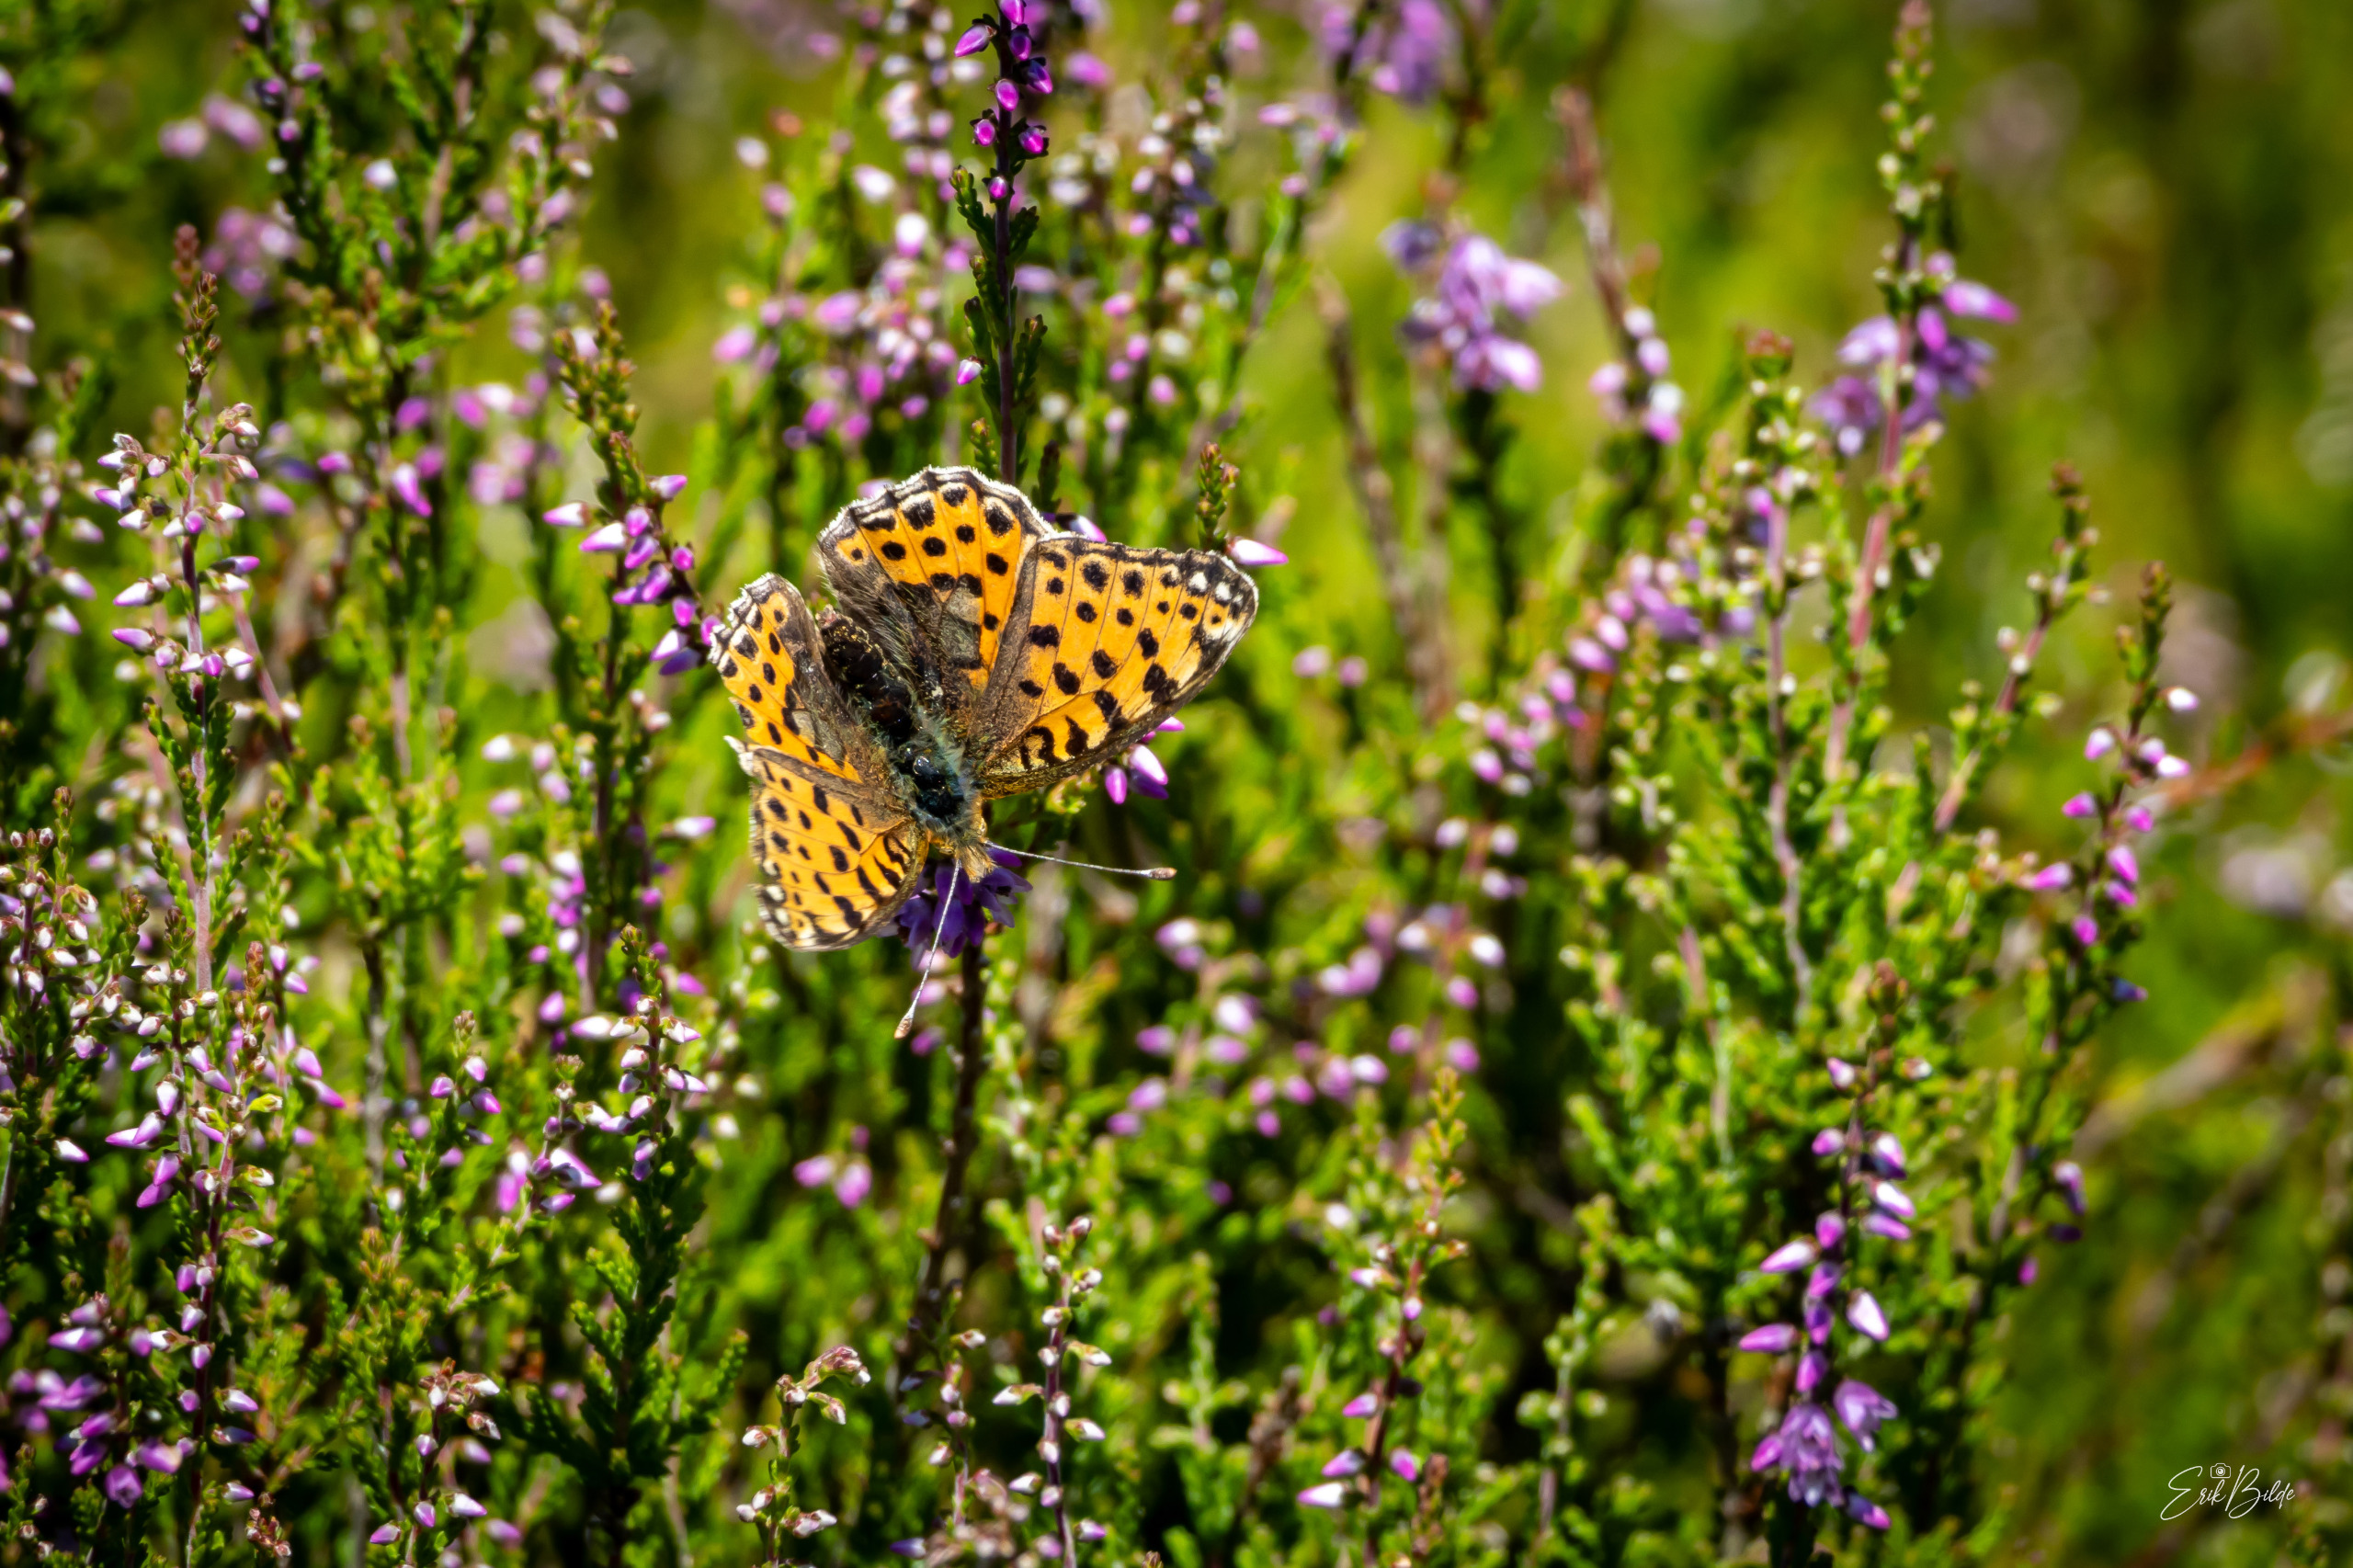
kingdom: Animalia
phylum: Arthropoda
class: Insecta
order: Lepidoptera
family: Nymphalidae
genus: Issoria
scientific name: Issoria lathonia
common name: Storplettet perlemorsommerfugl
